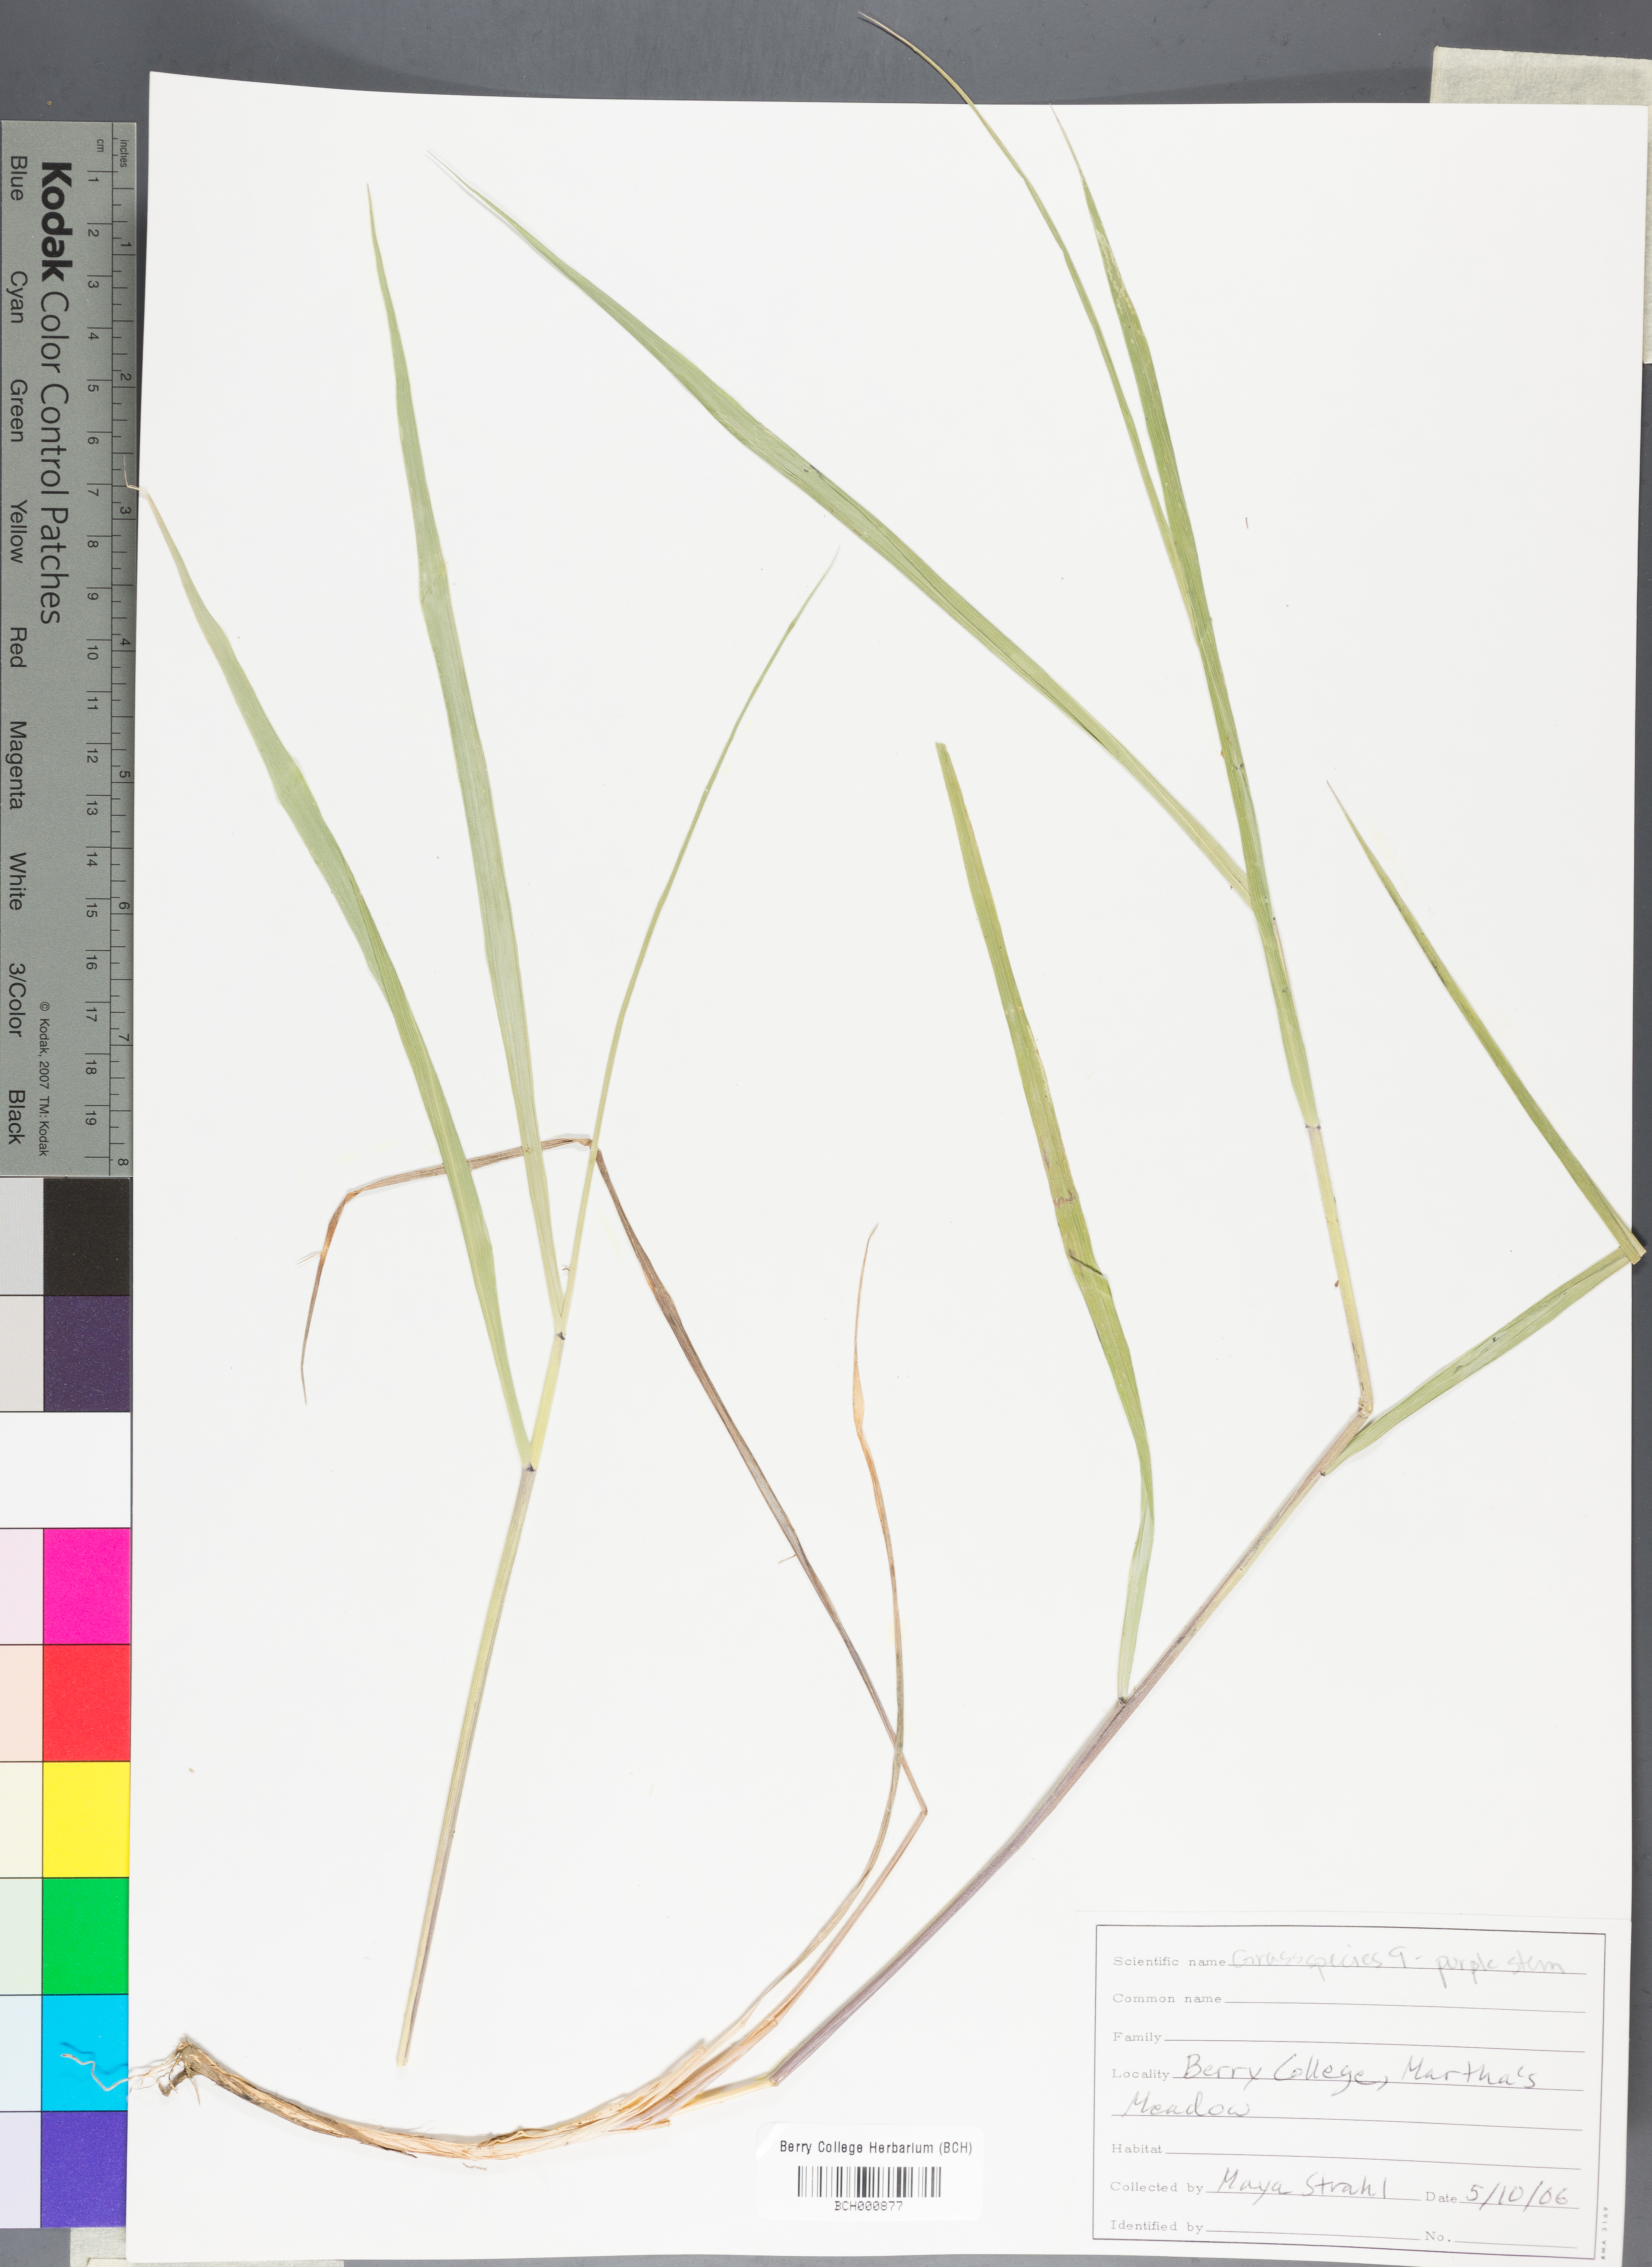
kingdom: Plantae
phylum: Tracheophyta
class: Magnoliopsida
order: Lamiales
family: Acanthaceae
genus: Adhatoda
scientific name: Adhatoda
